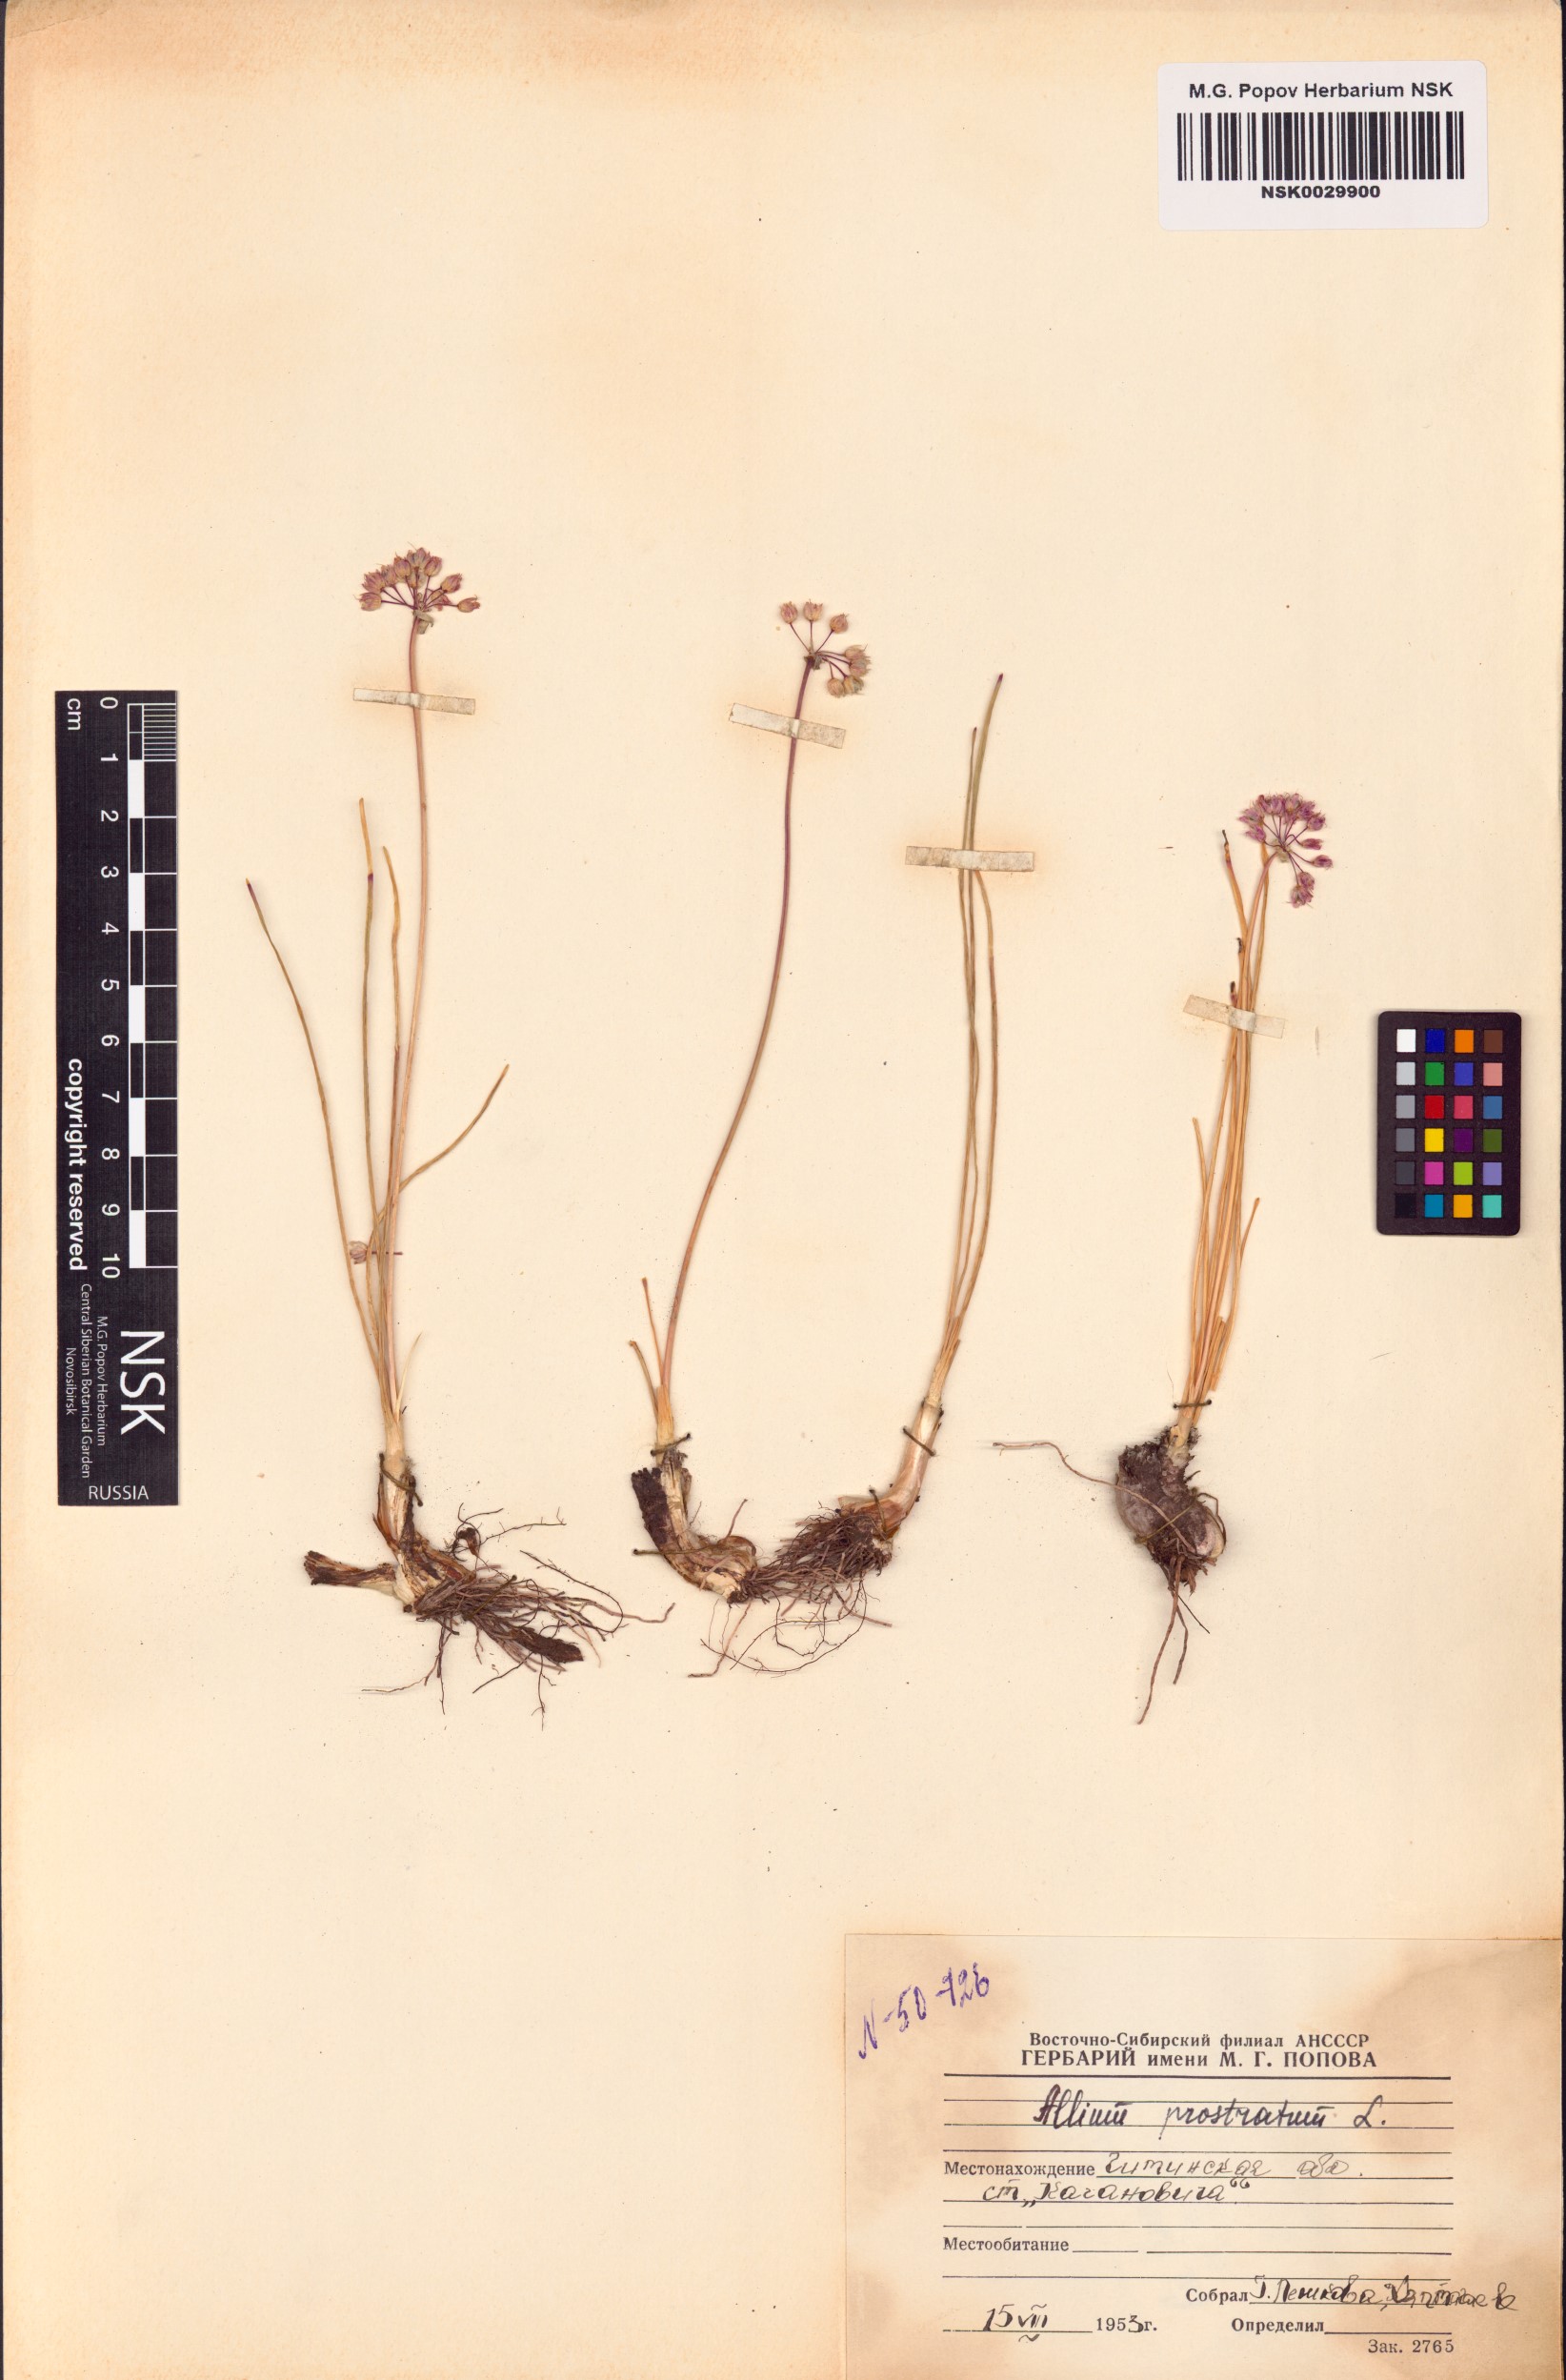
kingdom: Plantae
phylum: Tracheophyta
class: Liliopsida
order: Asparagales
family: Amaryllidaceae
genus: Allium
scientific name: Allium prostratum
